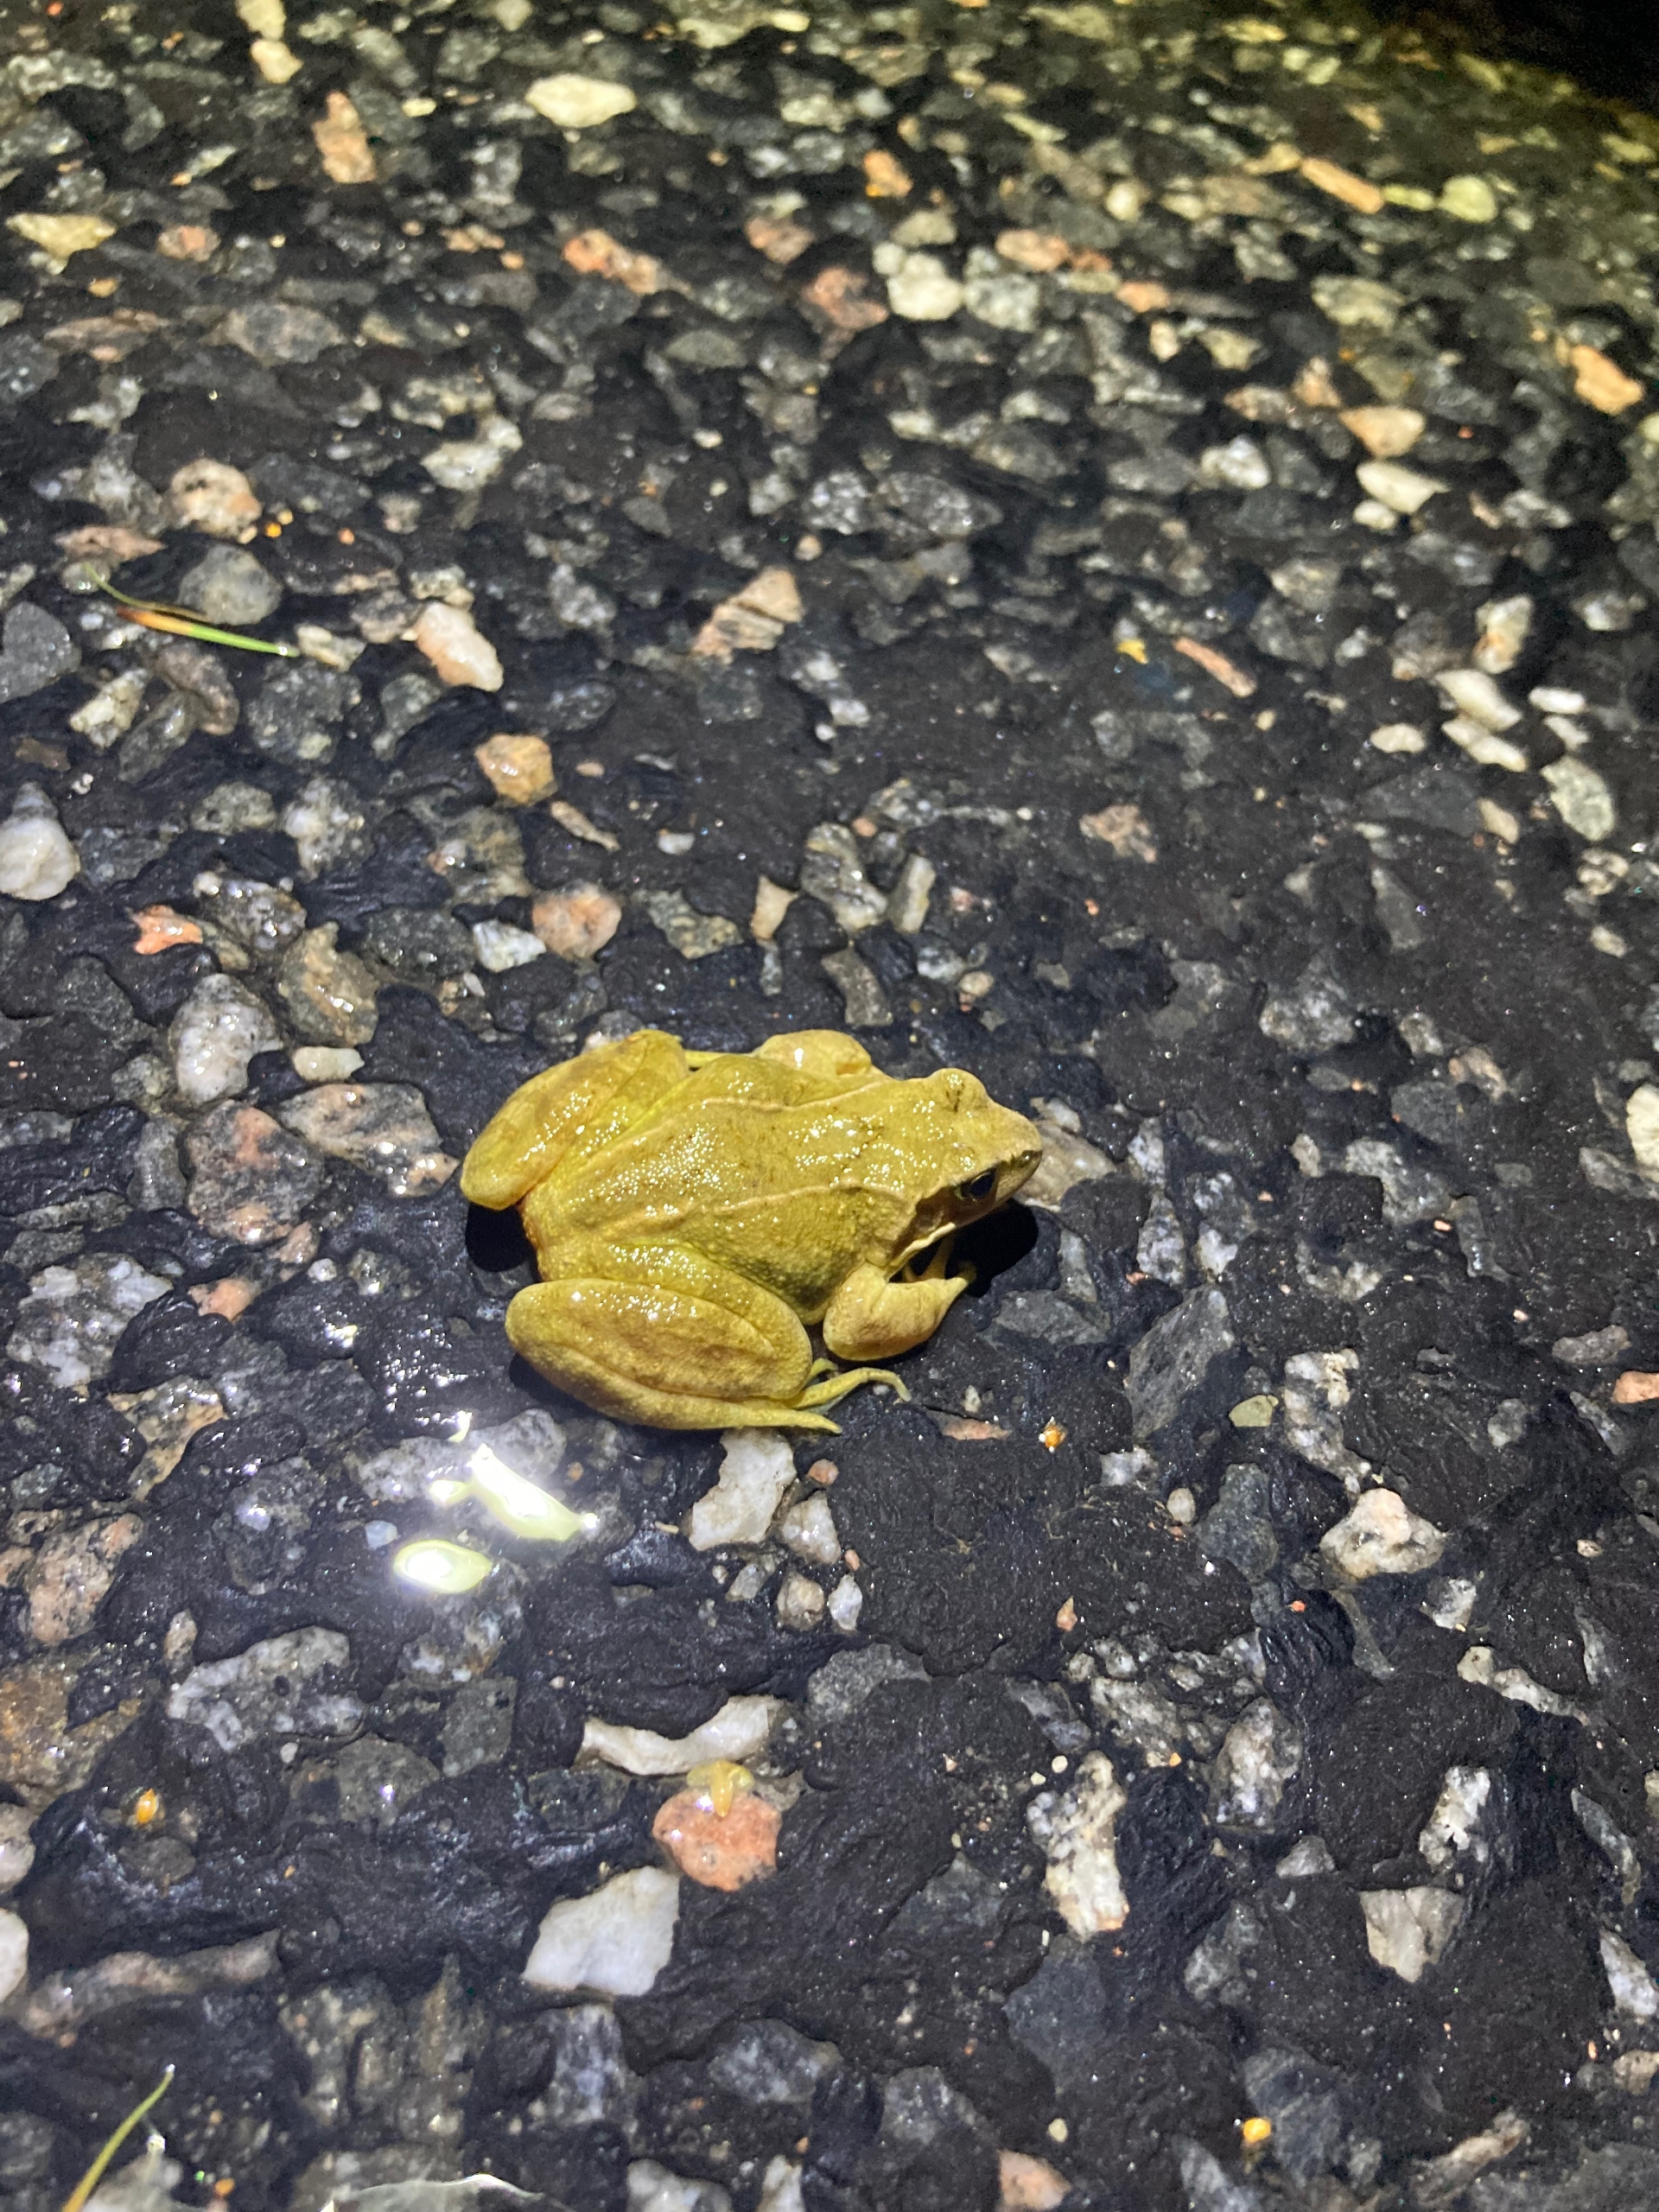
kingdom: Animalia
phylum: Chordata
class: Amphibia
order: Anura
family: Ranidae
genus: Rana
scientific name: Rana temporaria
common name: Butsnudet frø
